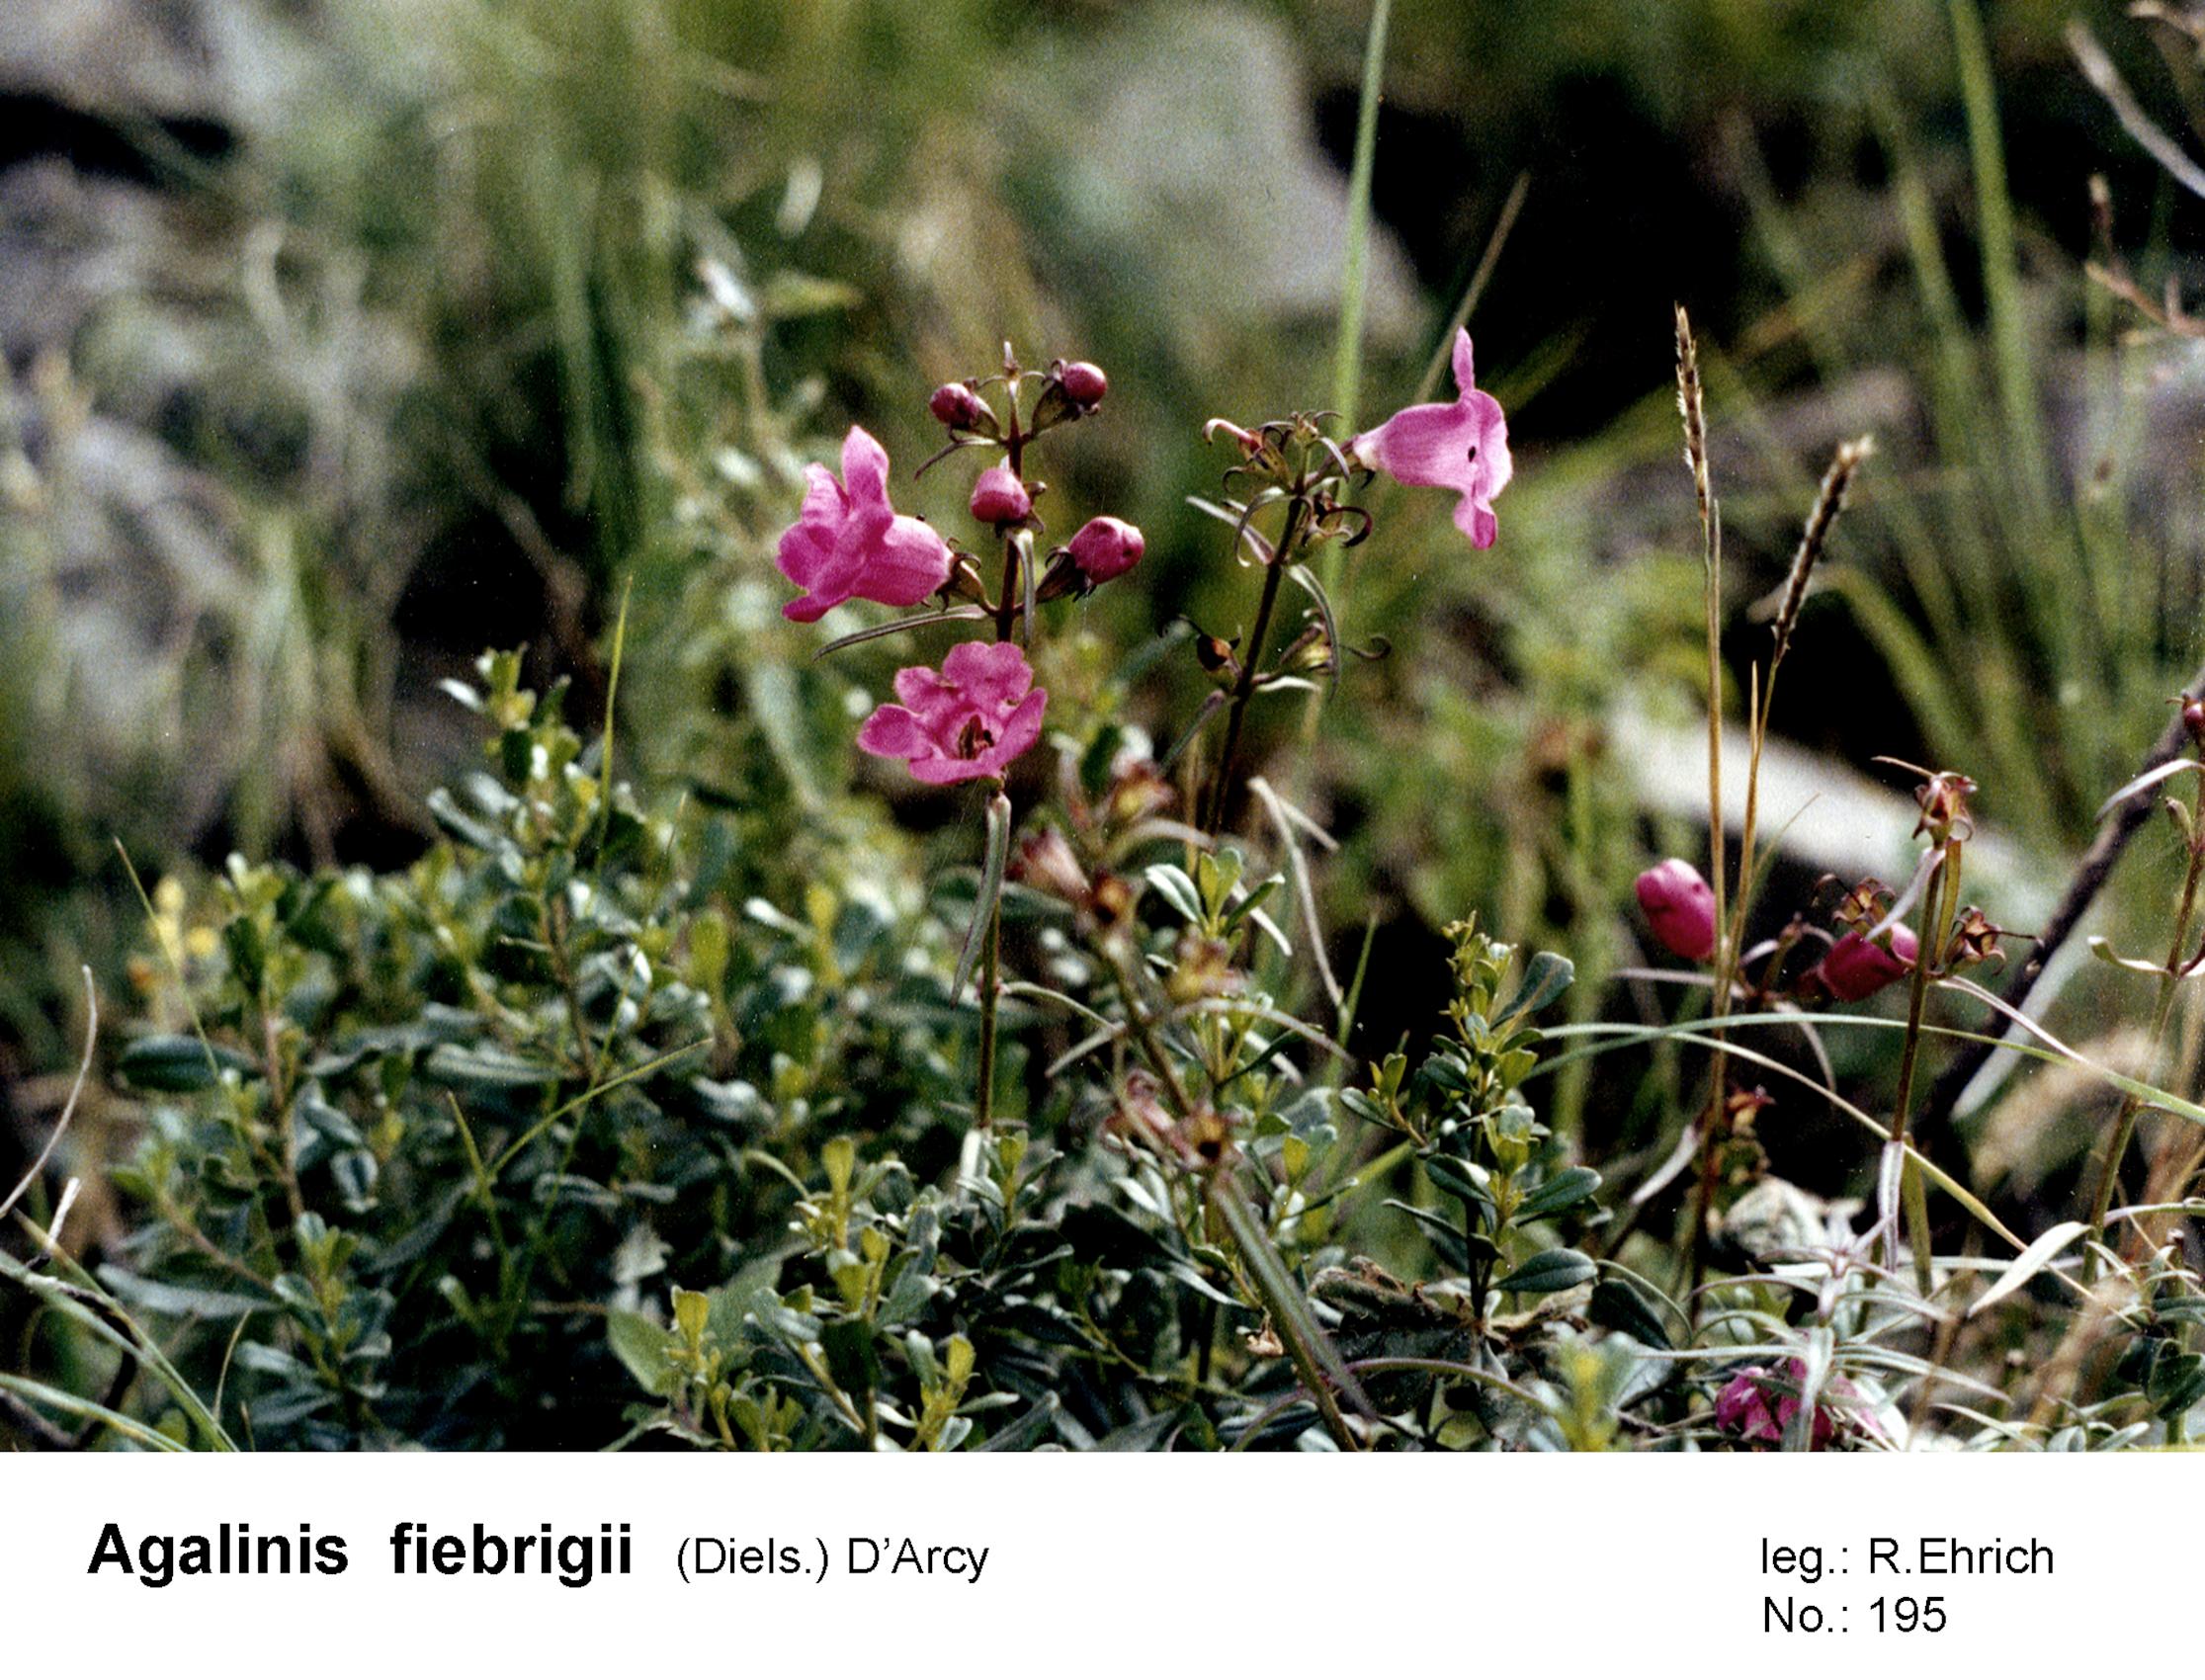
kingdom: Plantae
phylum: Tracheophyta
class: Magnoliopsida
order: Lamiales
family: Orobanchaceae
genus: Agalinis
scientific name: Agalinis fiebrigii
